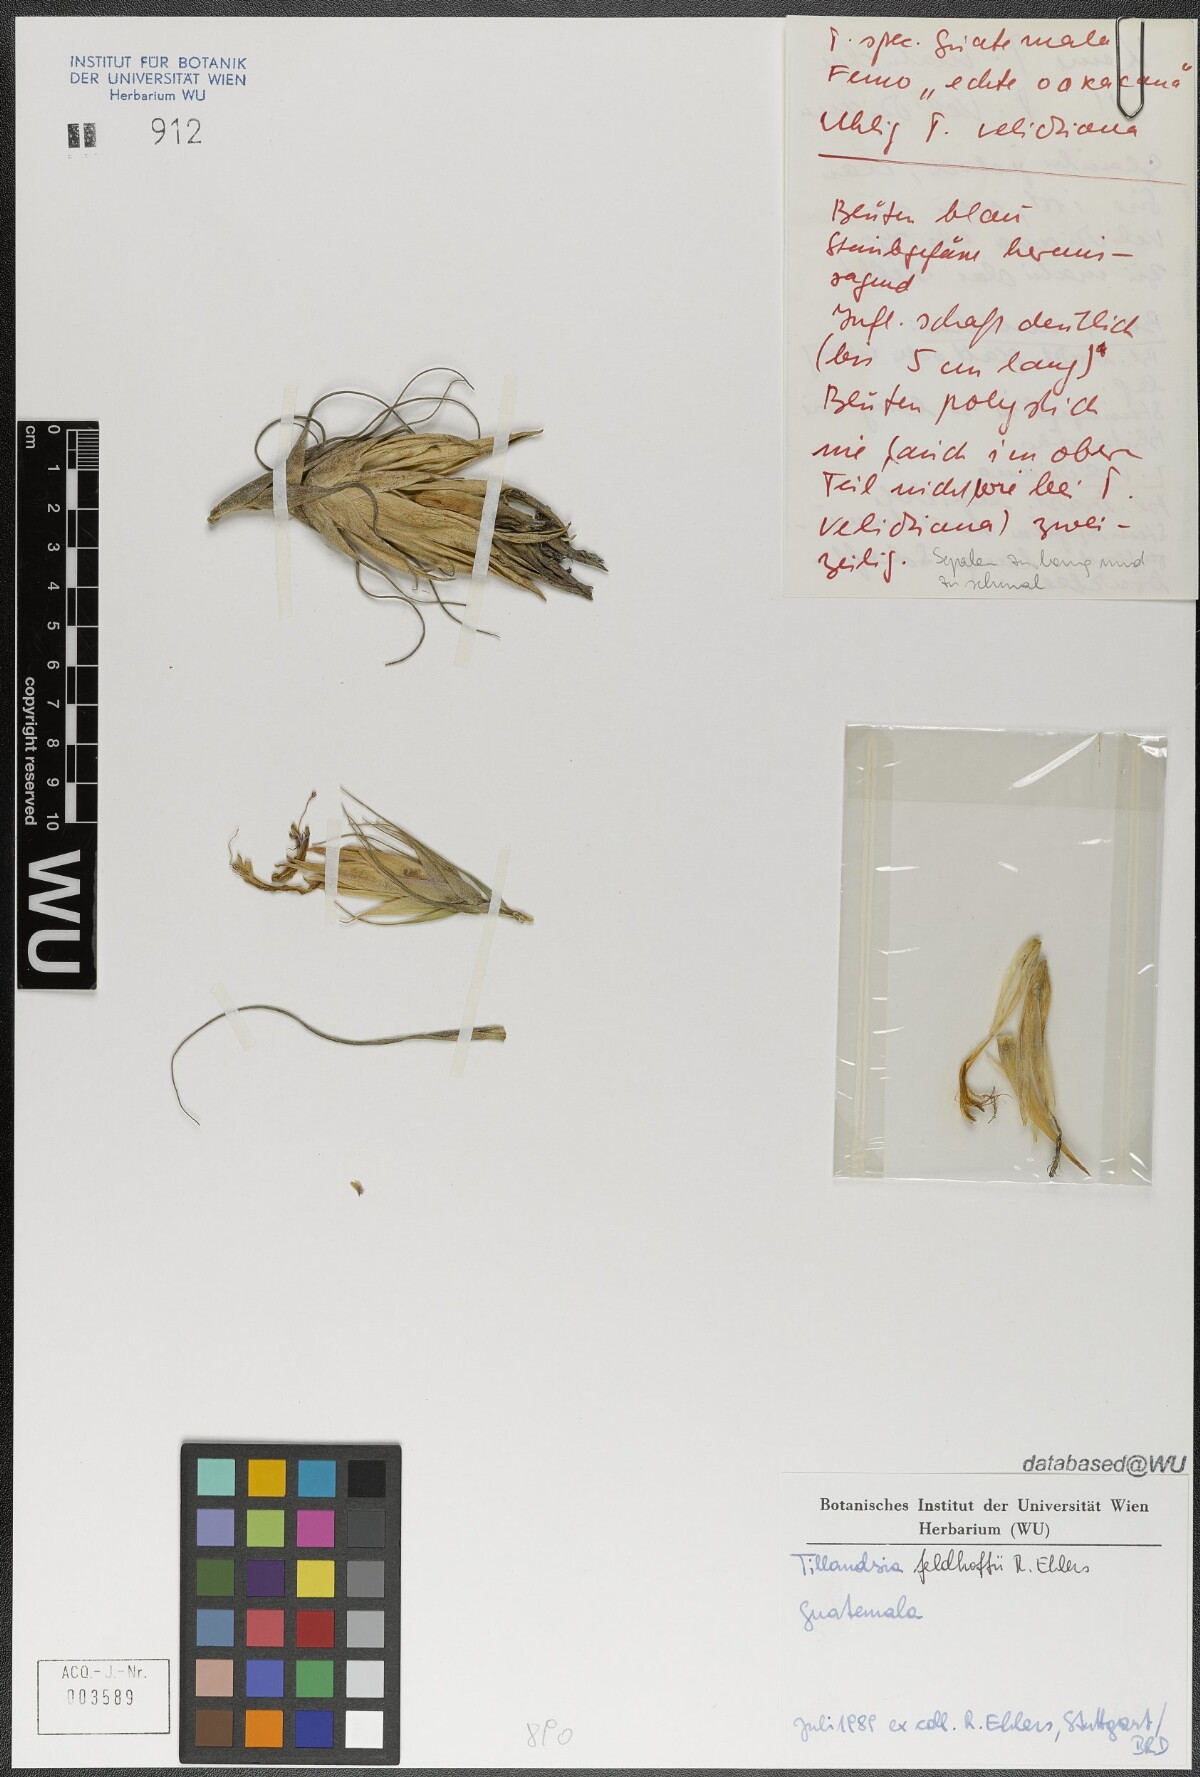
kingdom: Plantae
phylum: Tracheophyta
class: Liliopsida
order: Poales
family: Bromeliaceae
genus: Tillandsia
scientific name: Tillandsia matudae
